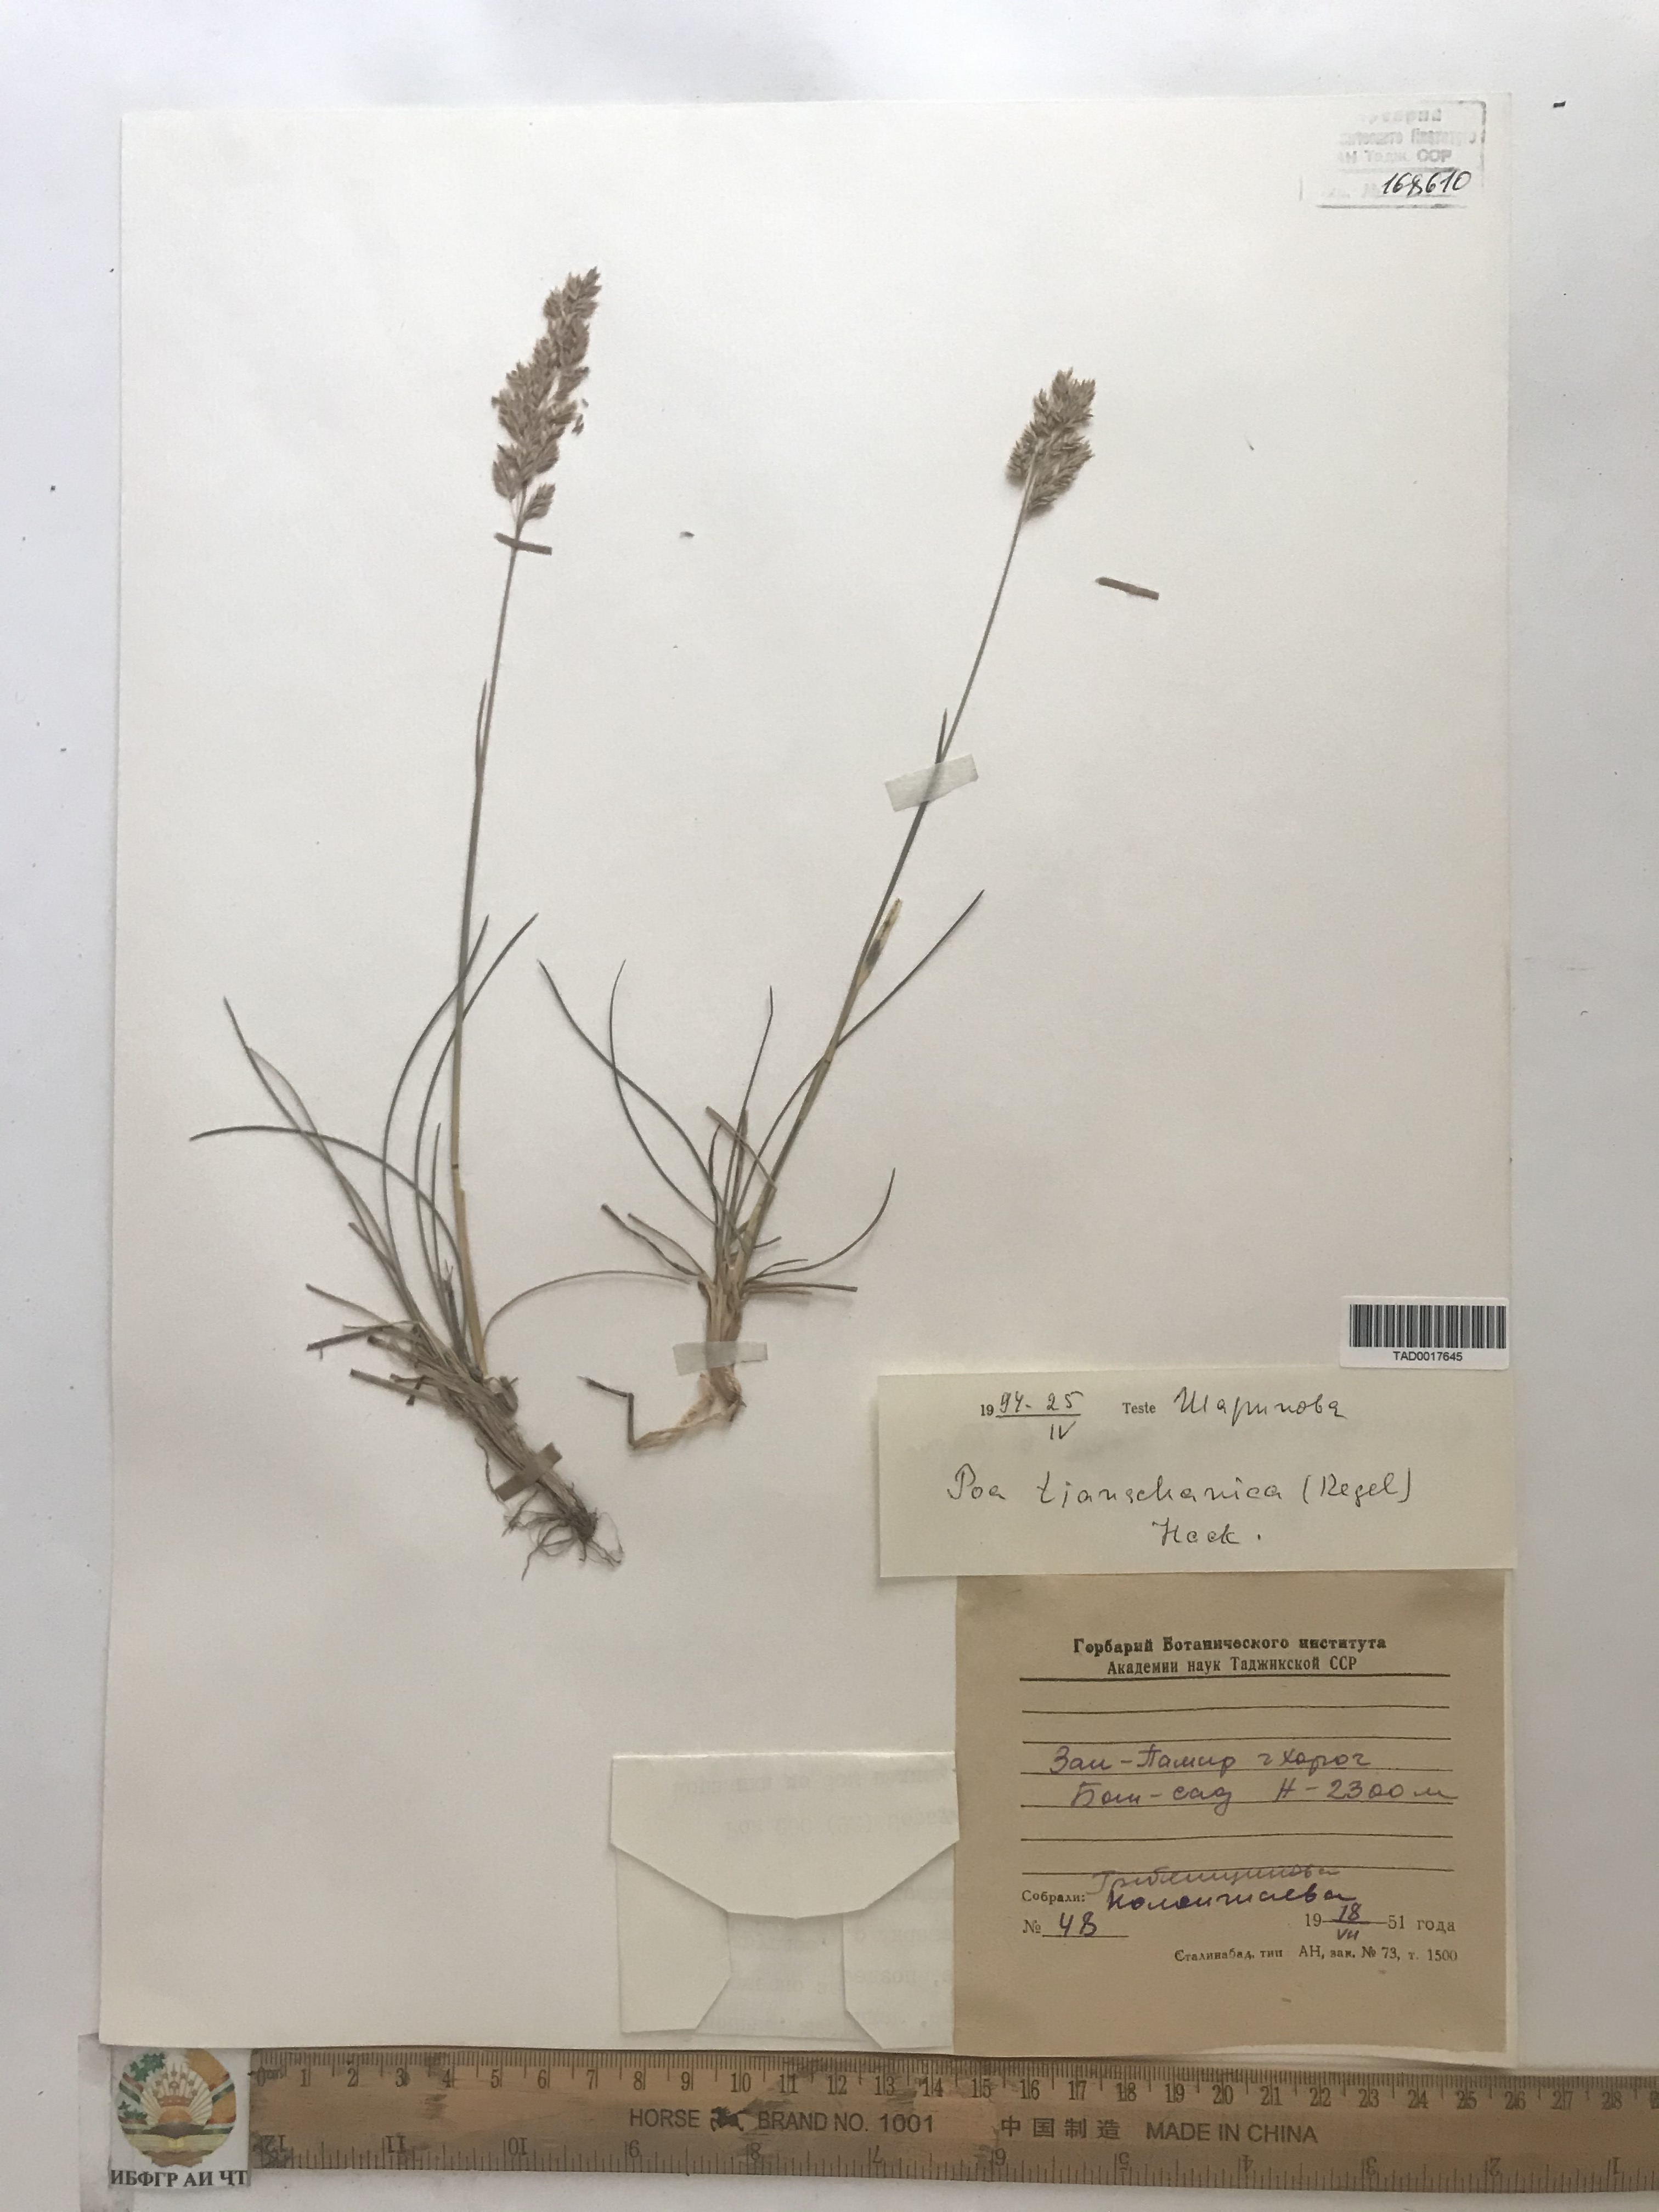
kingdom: Plantae
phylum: Tracheophyta
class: Liliopsida
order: Poales
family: Poaceae
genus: Poa
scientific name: Poa tianschanica
